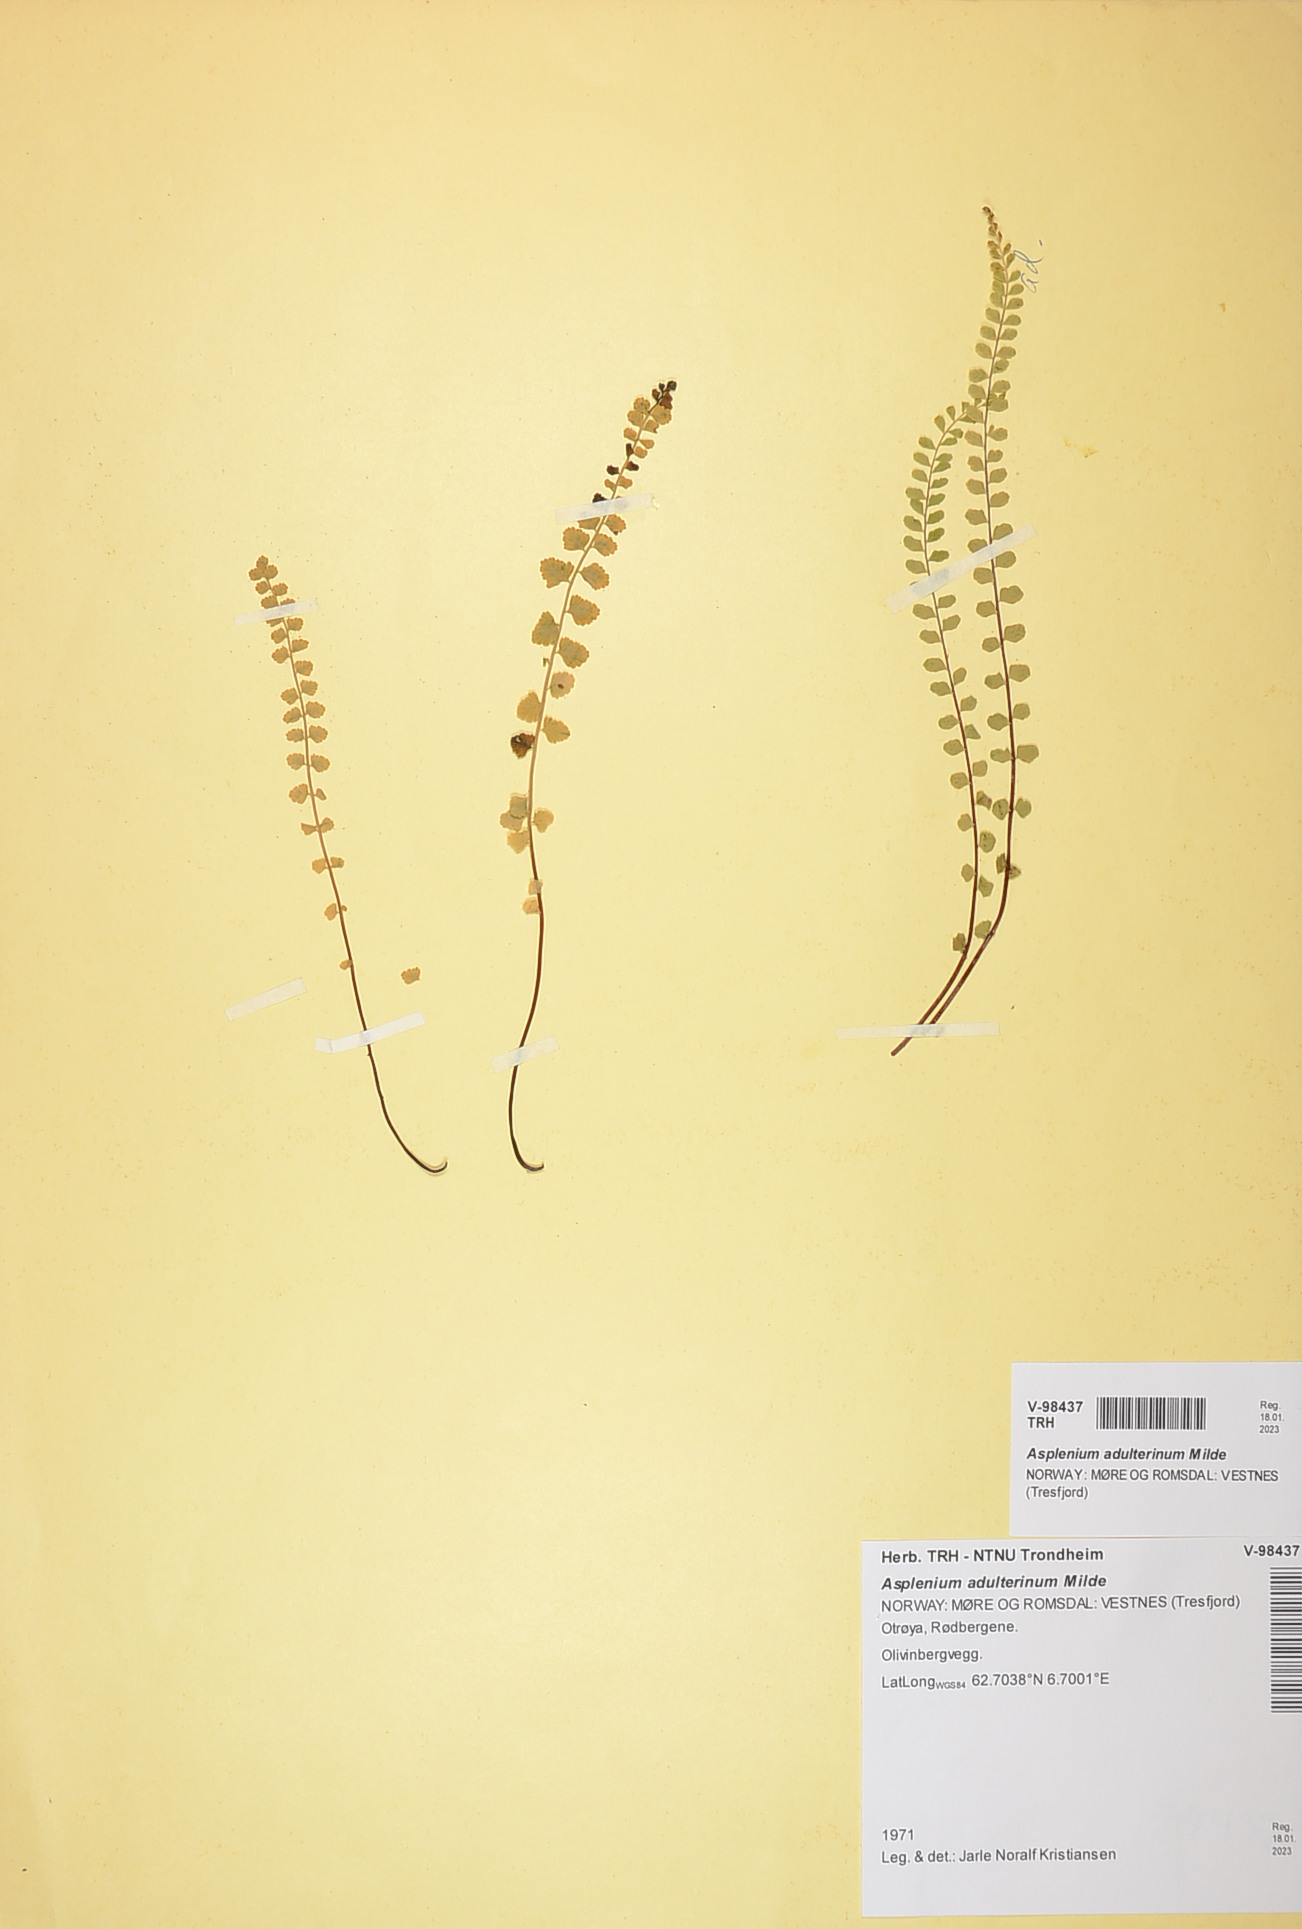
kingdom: Plantae
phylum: Tracheophyta
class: Polypodiopsida
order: Polypodiales
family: Aspleniaceae
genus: Asplenium
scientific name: Asplenium adulterinum
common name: Adulterated spleenwort
